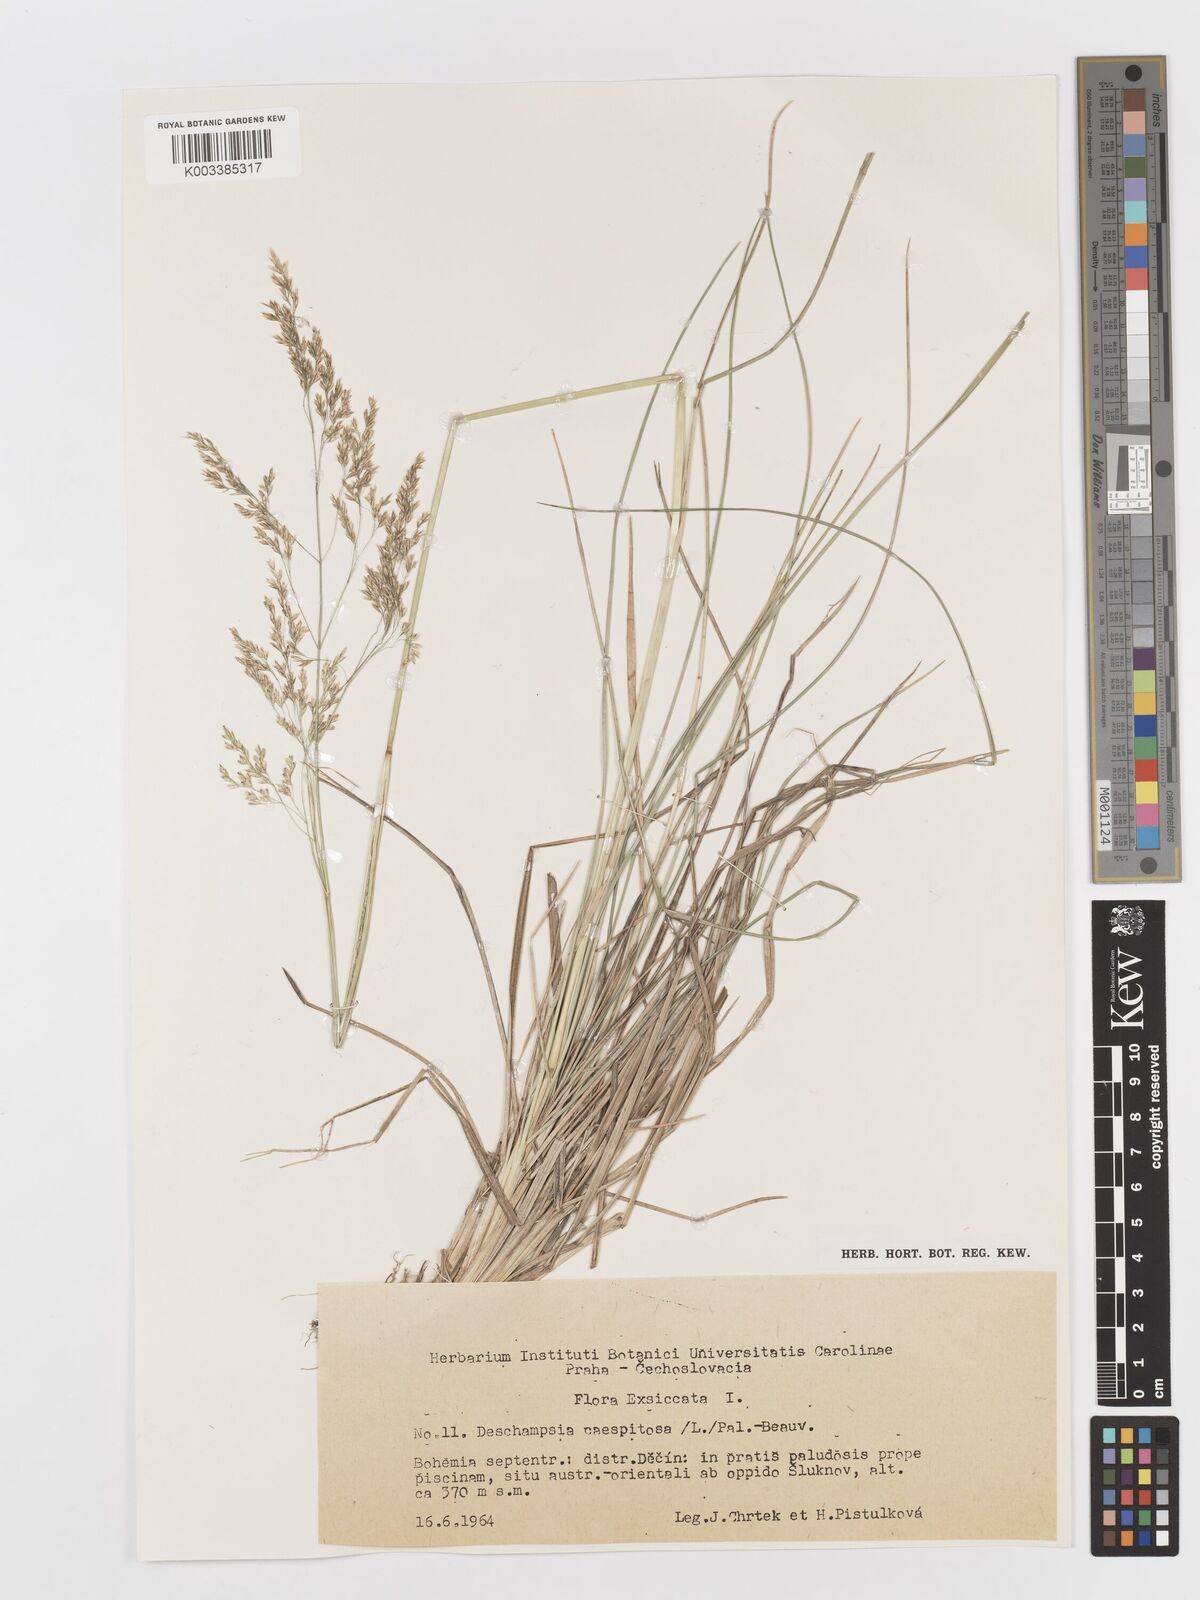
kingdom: Plantae
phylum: Tracheophyta
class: Liliopsida
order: Poales
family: Poaceae
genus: Deschampsia
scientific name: Deschampsia cespitosa
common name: Tufted hair-grass
